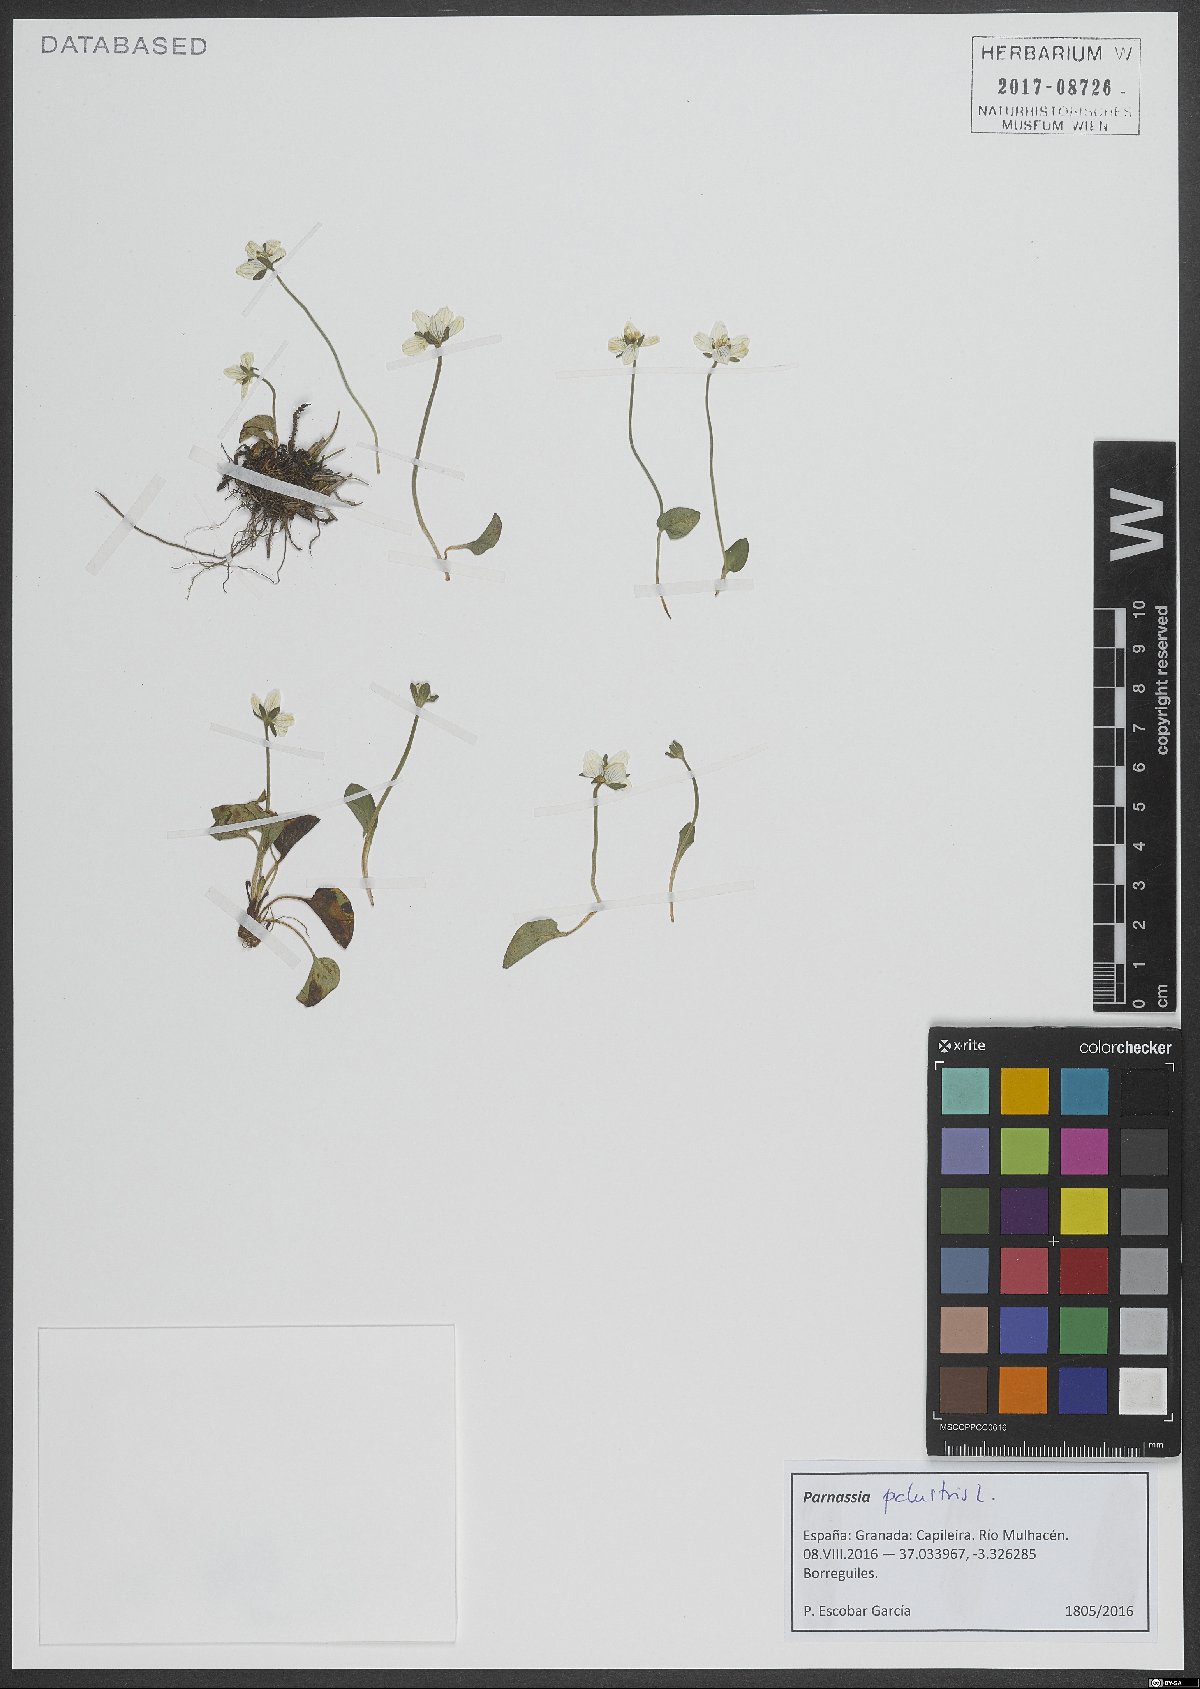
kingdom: Plantae
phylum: Tracheophyta
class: Magnoliopsida
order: Celastrales
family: Parnassiaceae
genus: Parnassia
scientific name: Parnassia palustris
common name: Grass-of-parnassus
